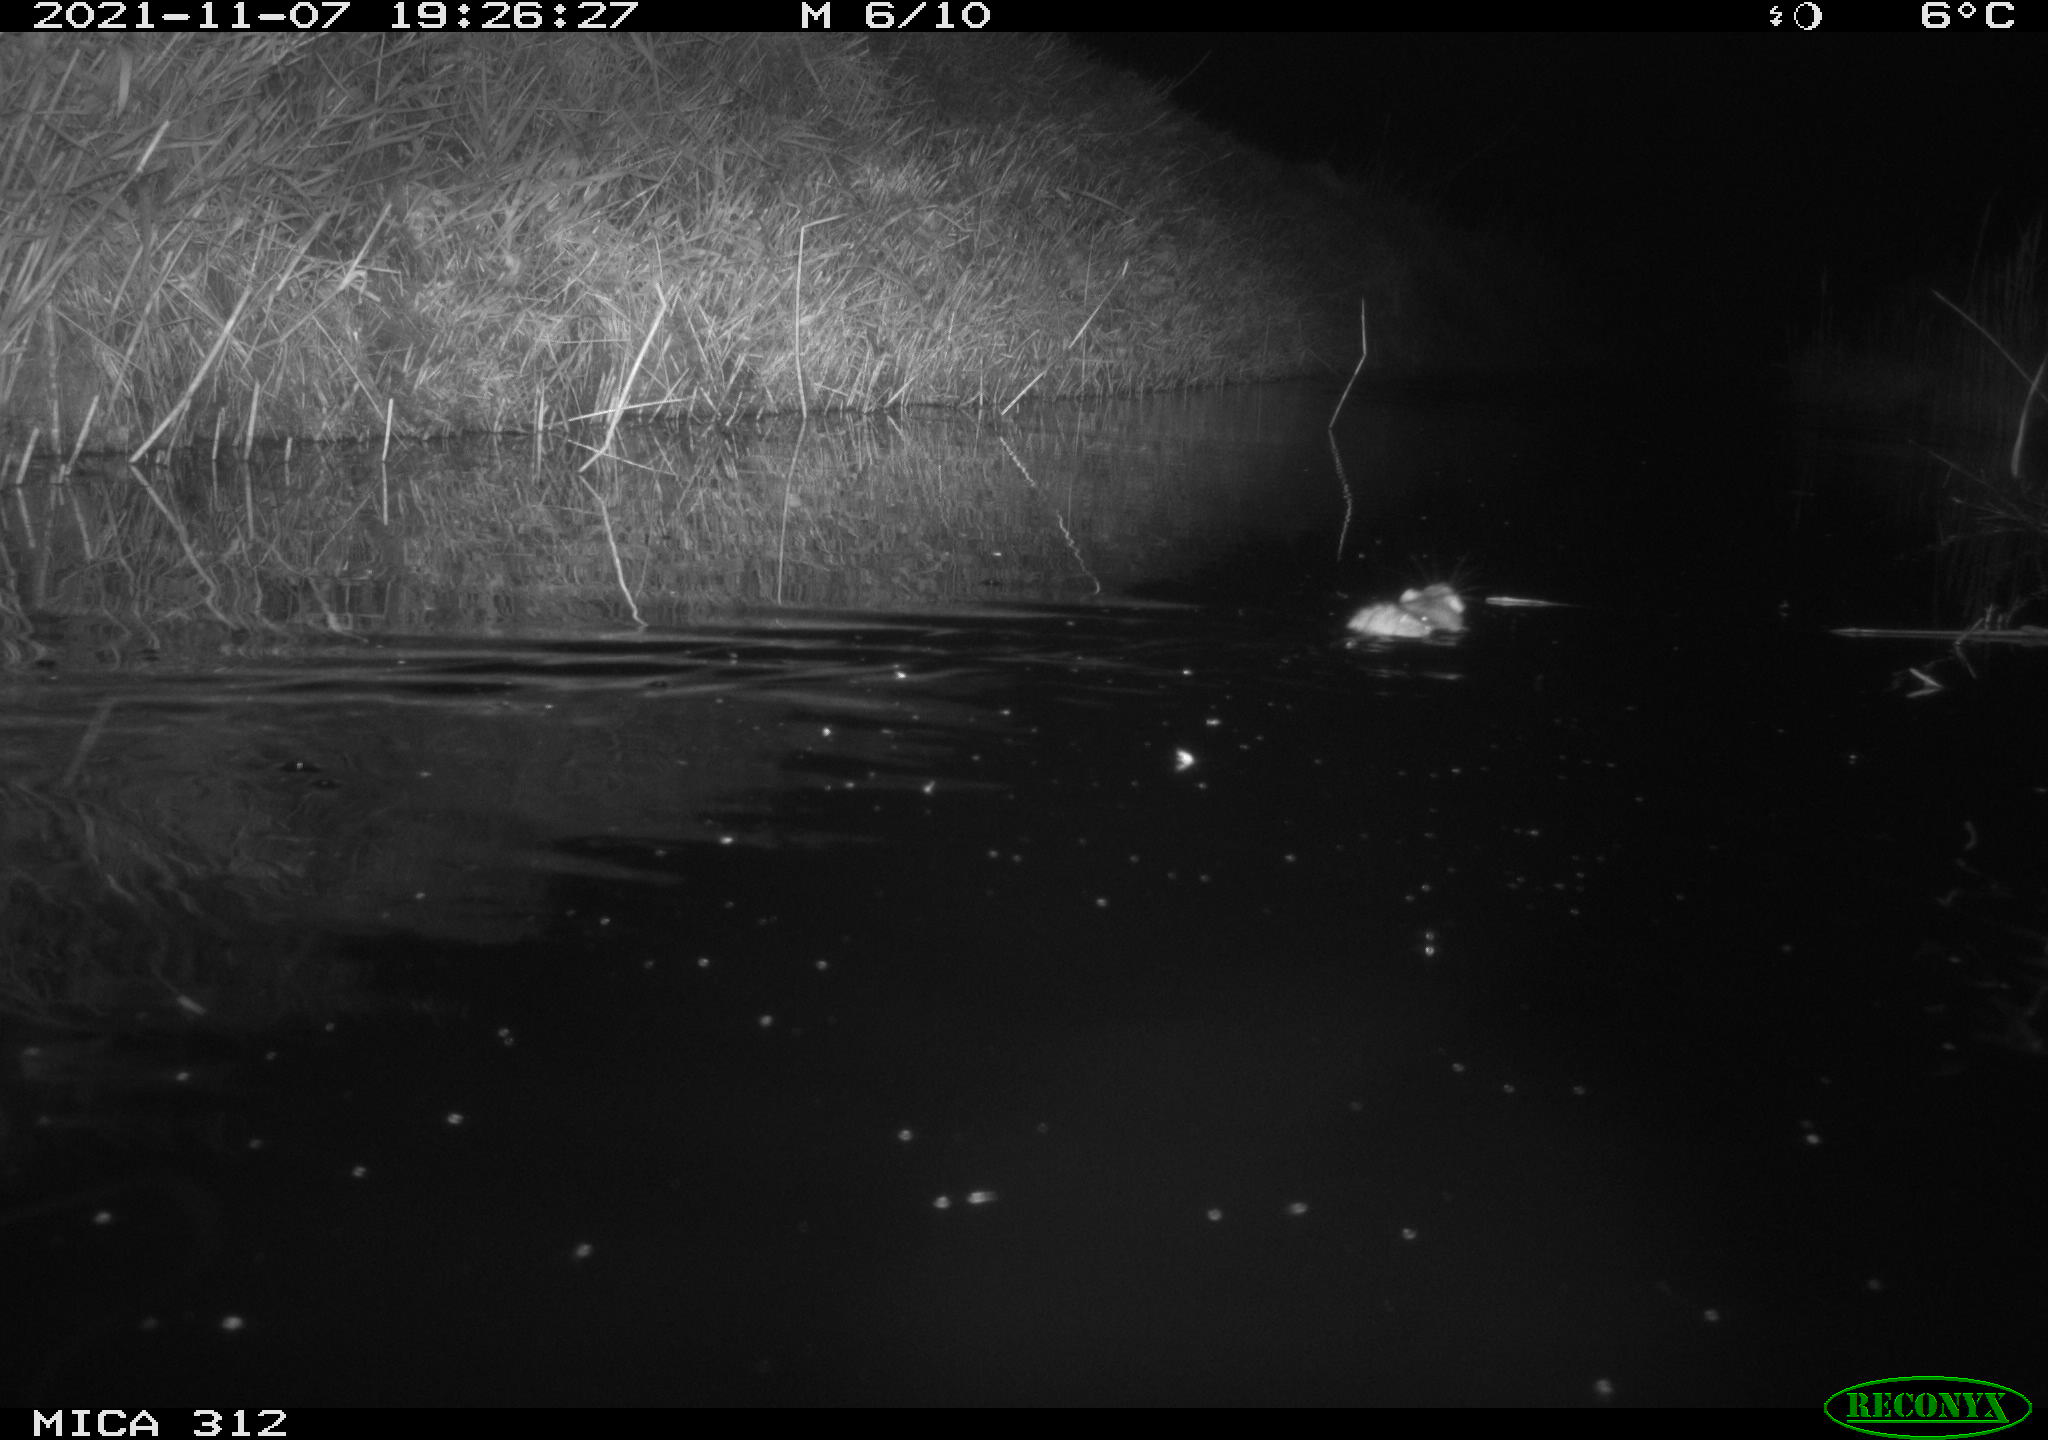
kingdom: Animalia
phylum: Chordata
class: Mammalia
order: Rodentia
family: Muridae
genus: Rattus
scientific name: Rattus norvegicus
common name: Brown rat
